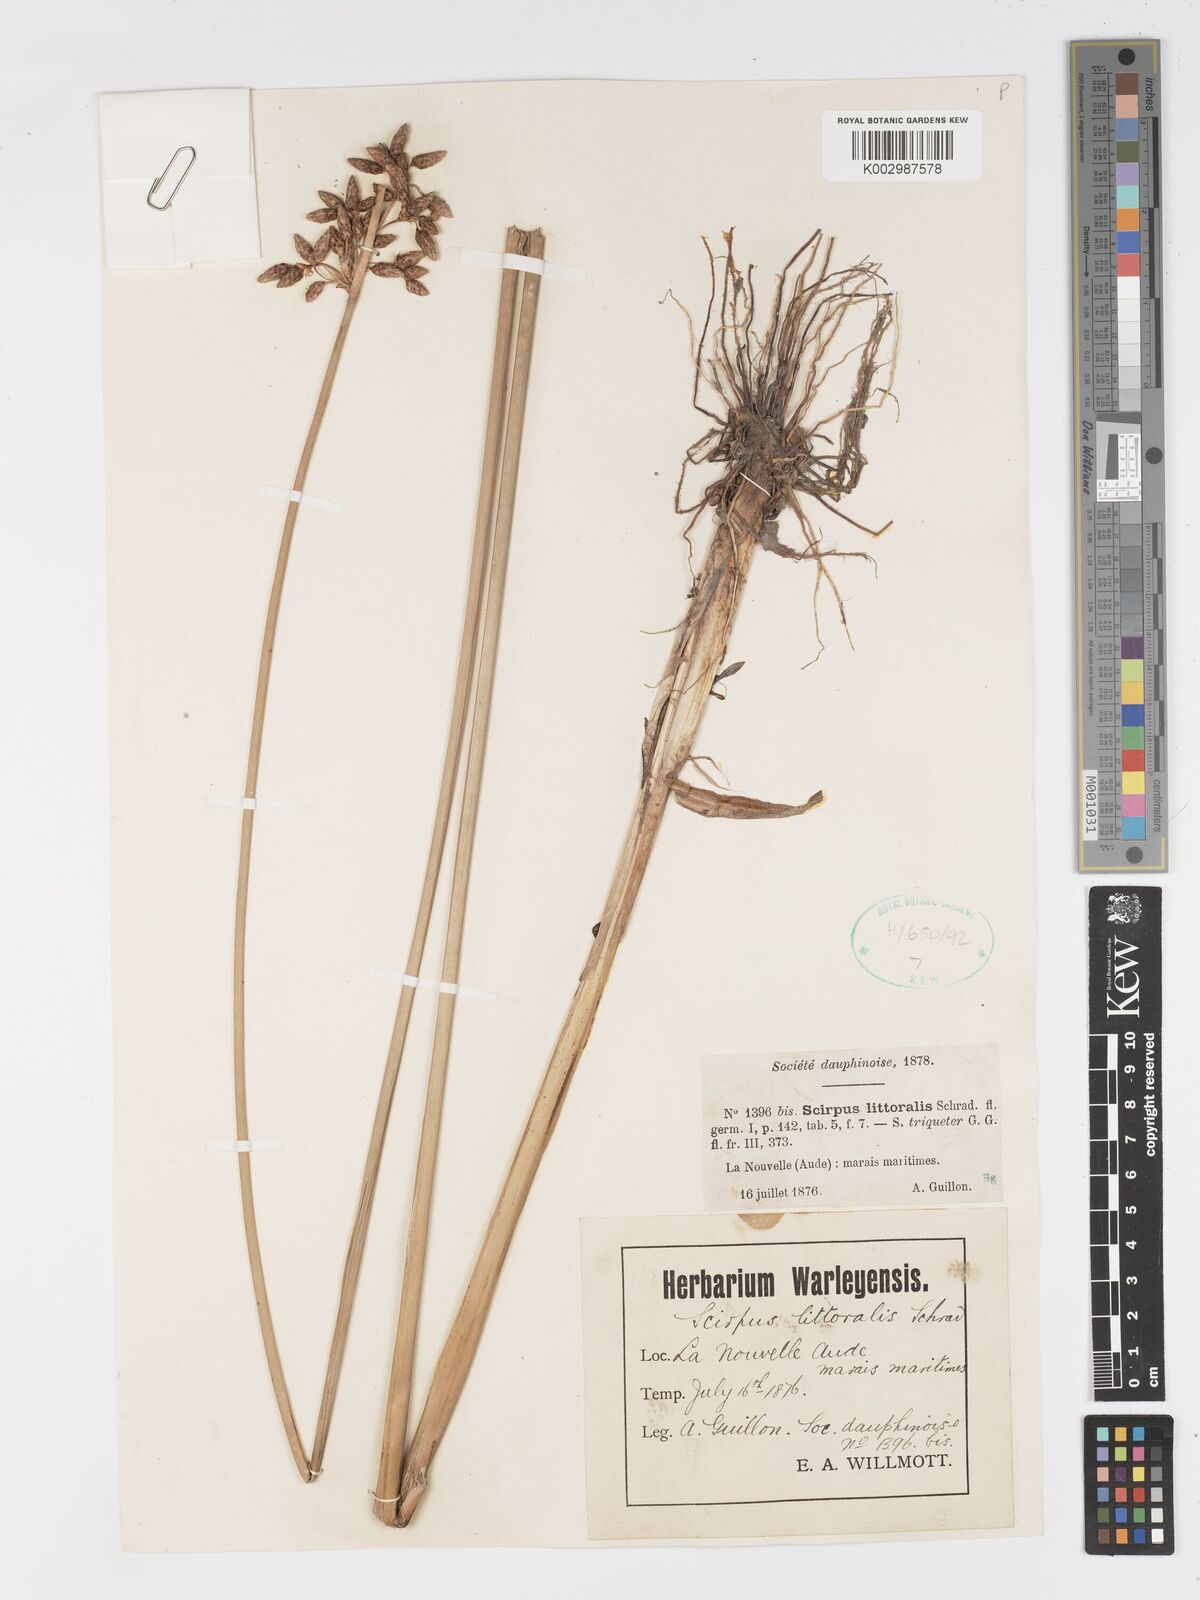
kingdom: Plantae
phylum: Tracheophyta
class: Liliopsida
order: Poales
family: Cyperaceae
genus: Schoenoplectus
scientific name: Schoenoplectus litoralis
